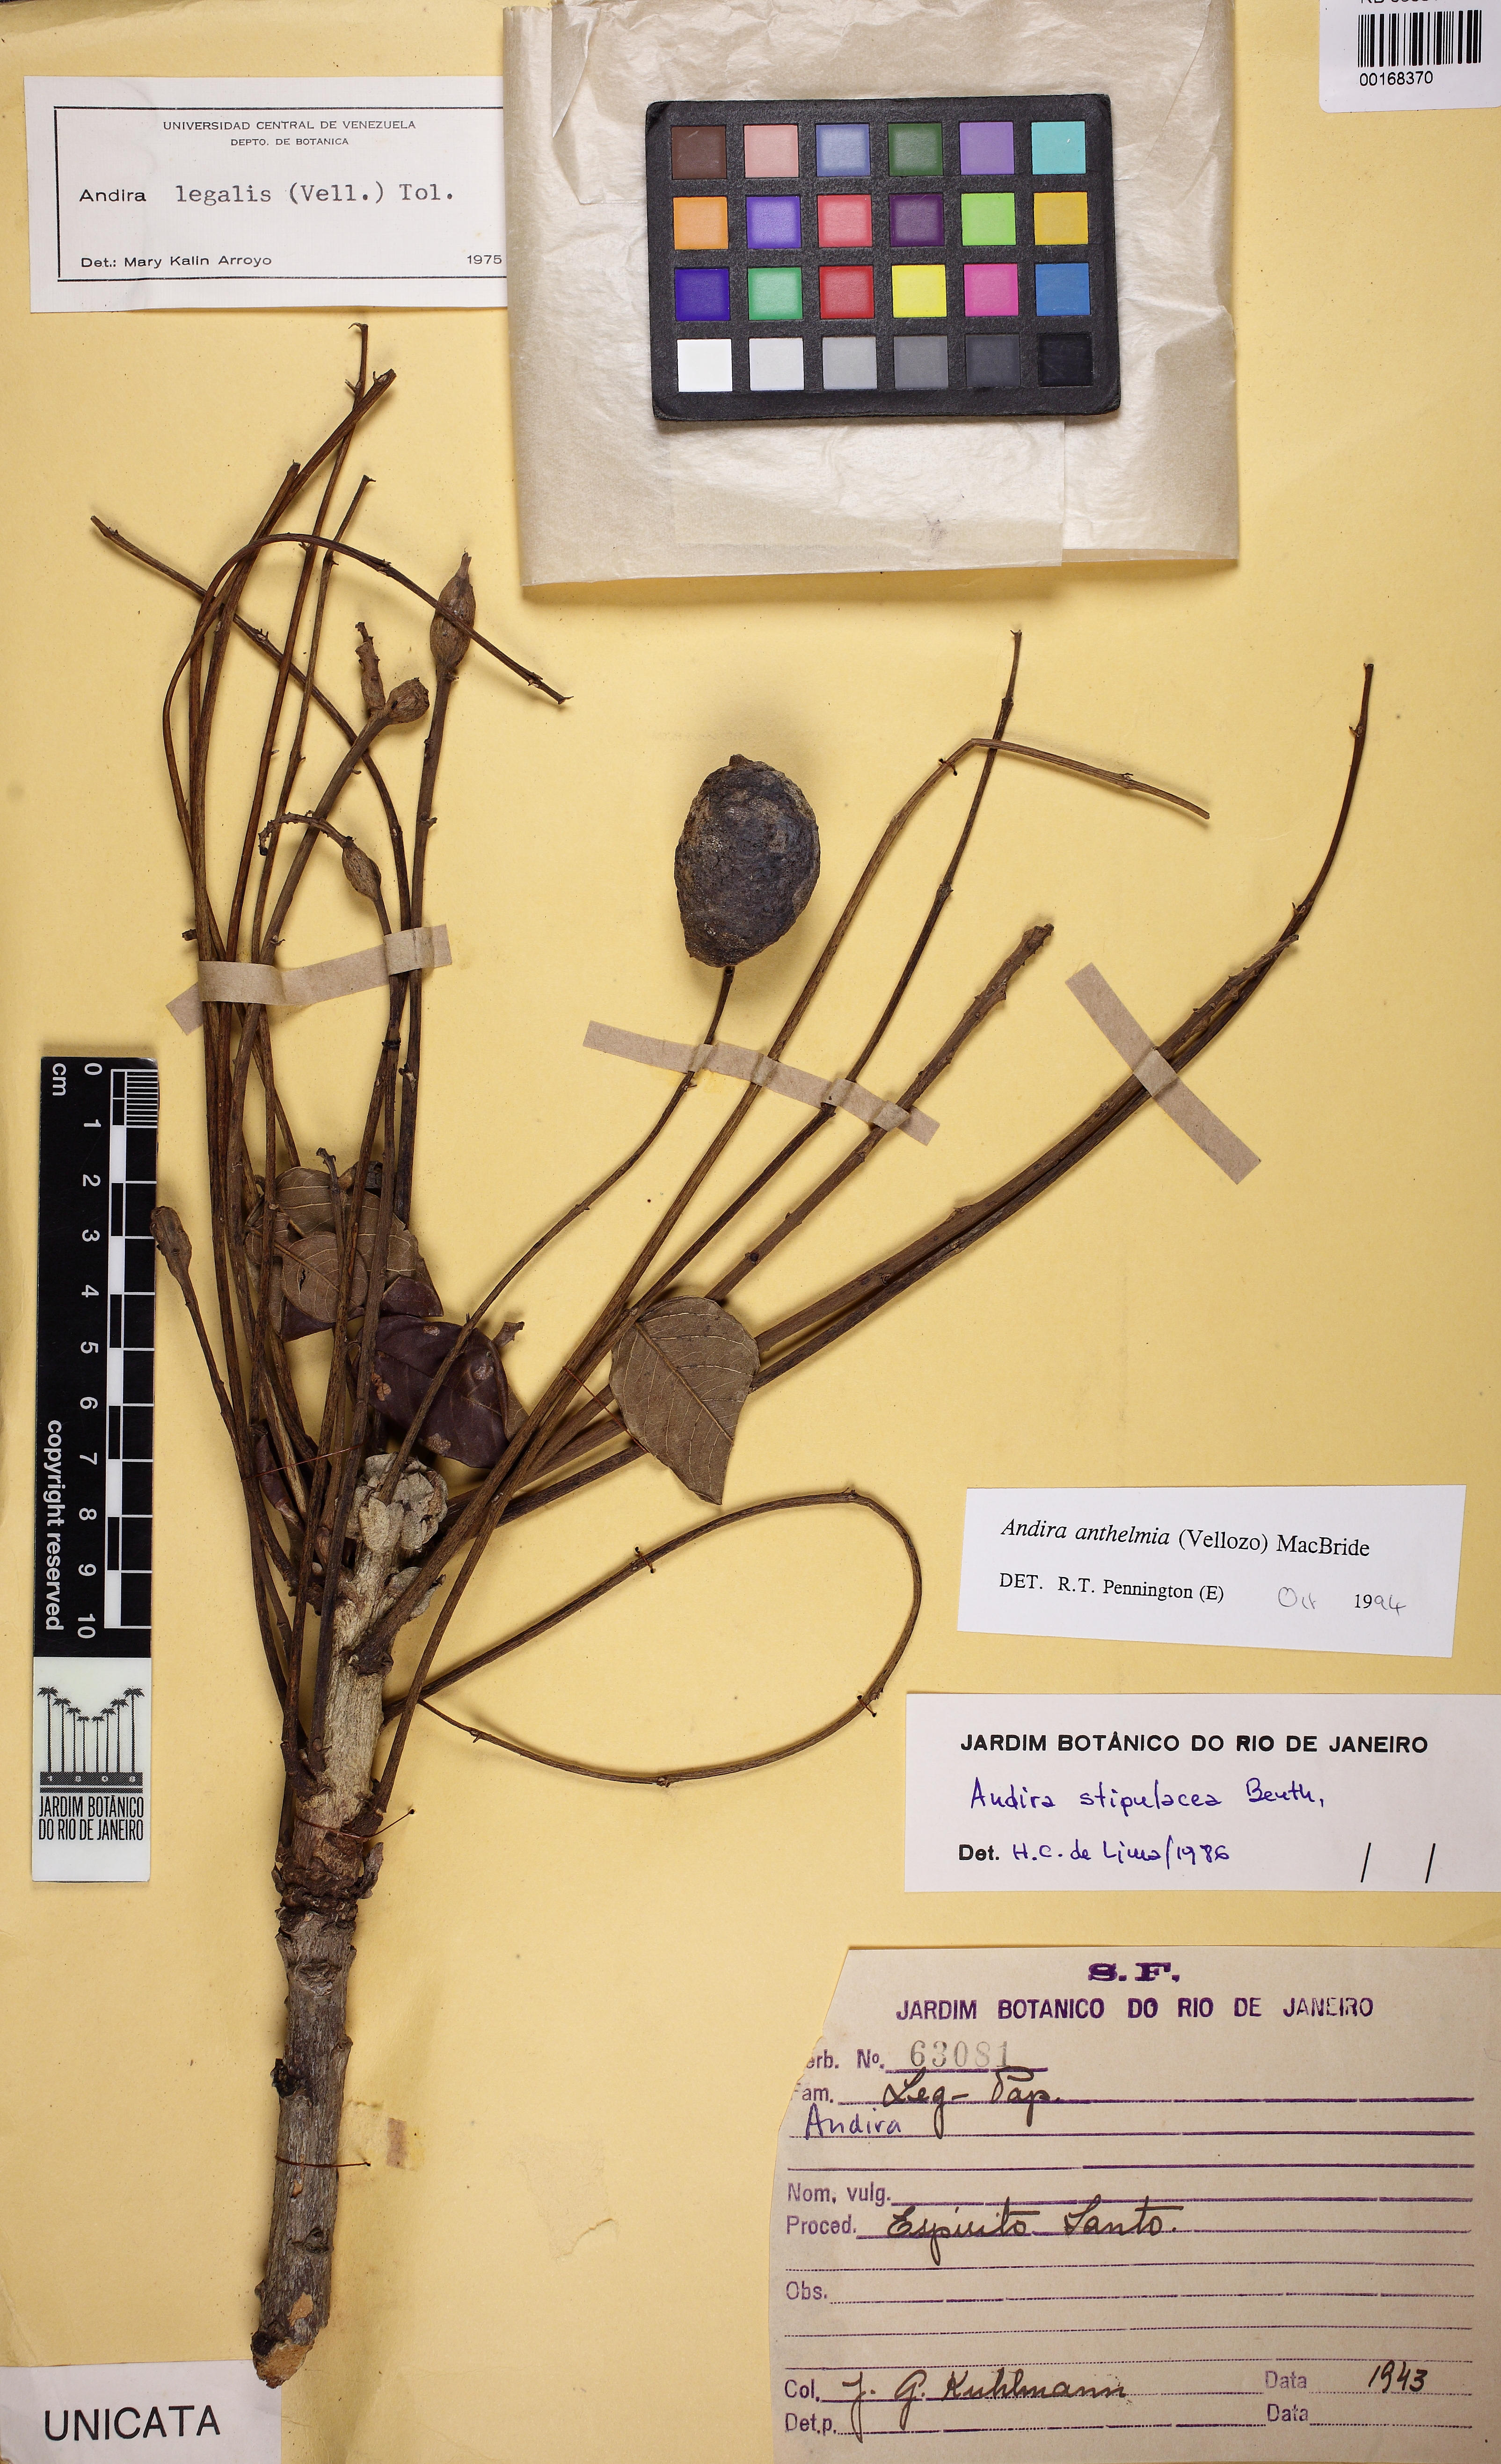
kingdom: Plantae
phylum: Tracheophyta
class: Magnoliopsida
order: Fabales
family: Fabaceae
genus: Andira
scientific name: Andira anthelmia
